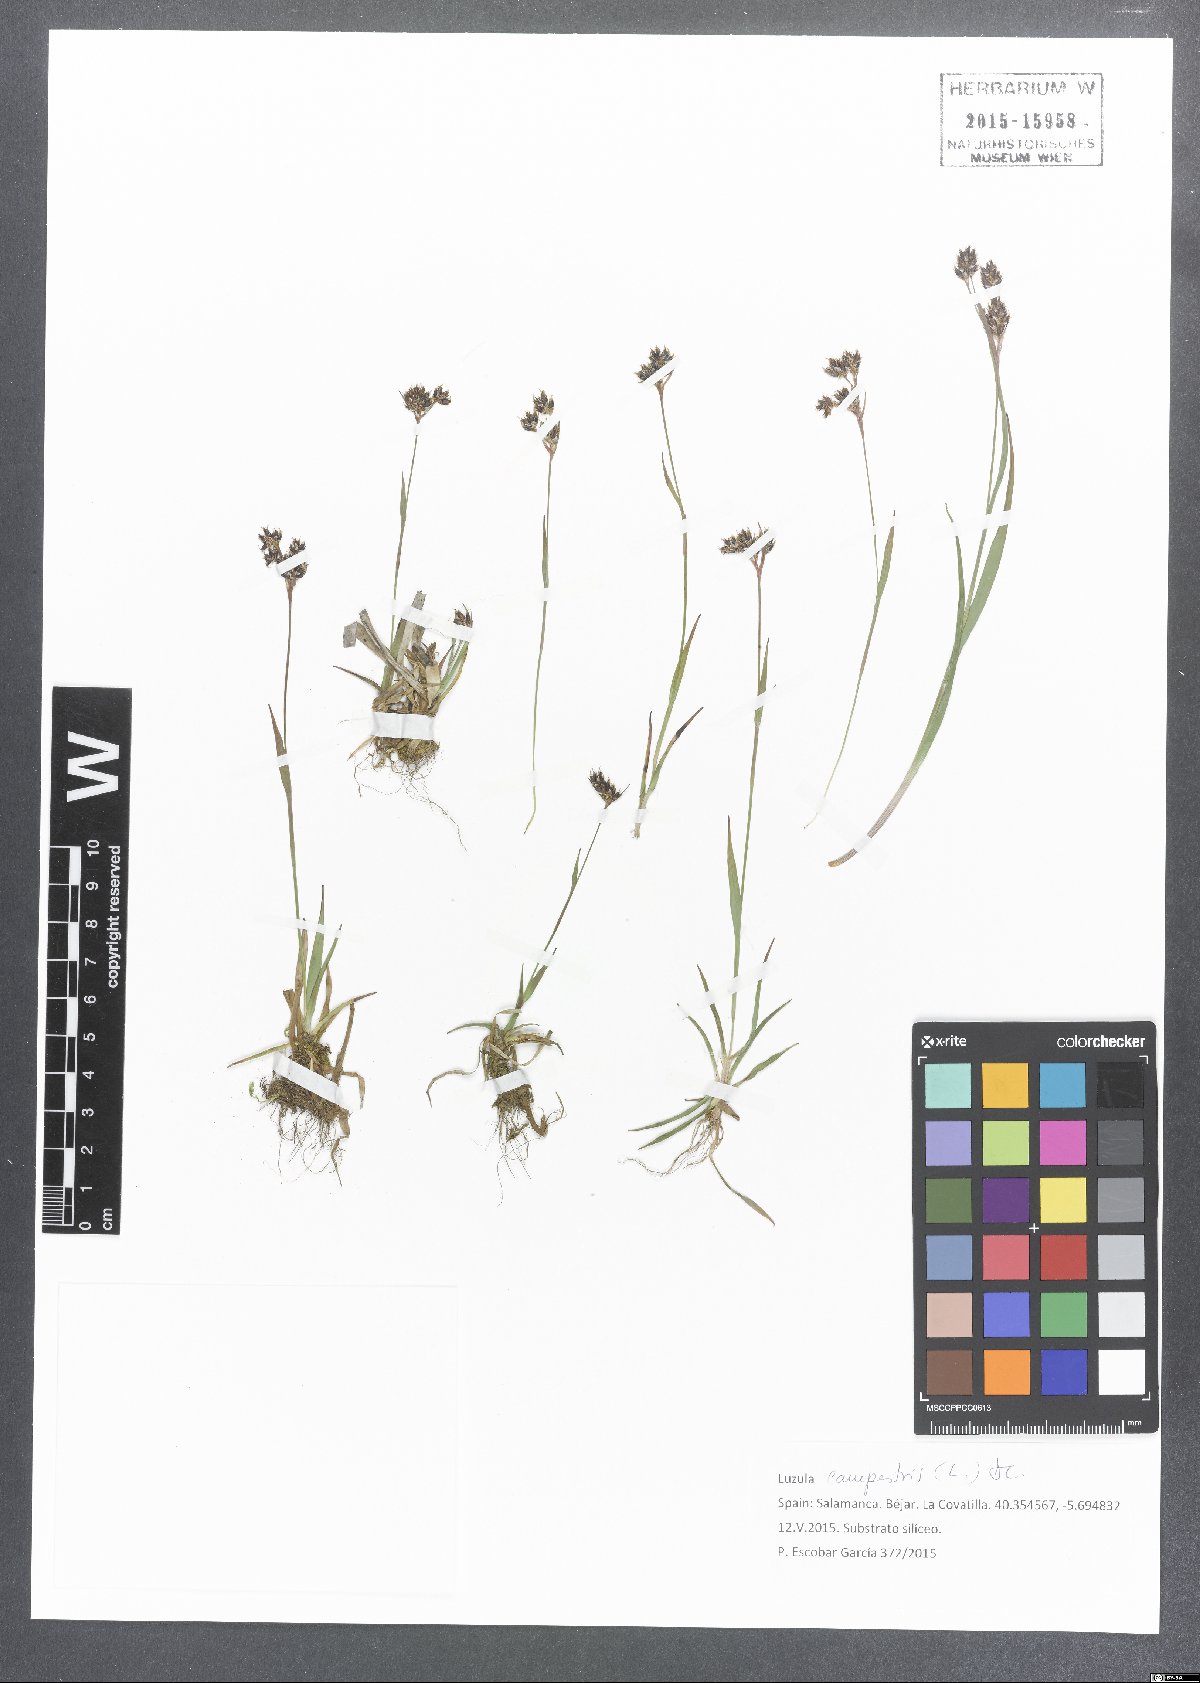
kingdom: Plantae
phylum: Tracheophyta
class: Liliopsida
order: Poales
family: Juncaceae
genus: Luzula
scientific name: Luzula campestris
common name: Field wood-rush
